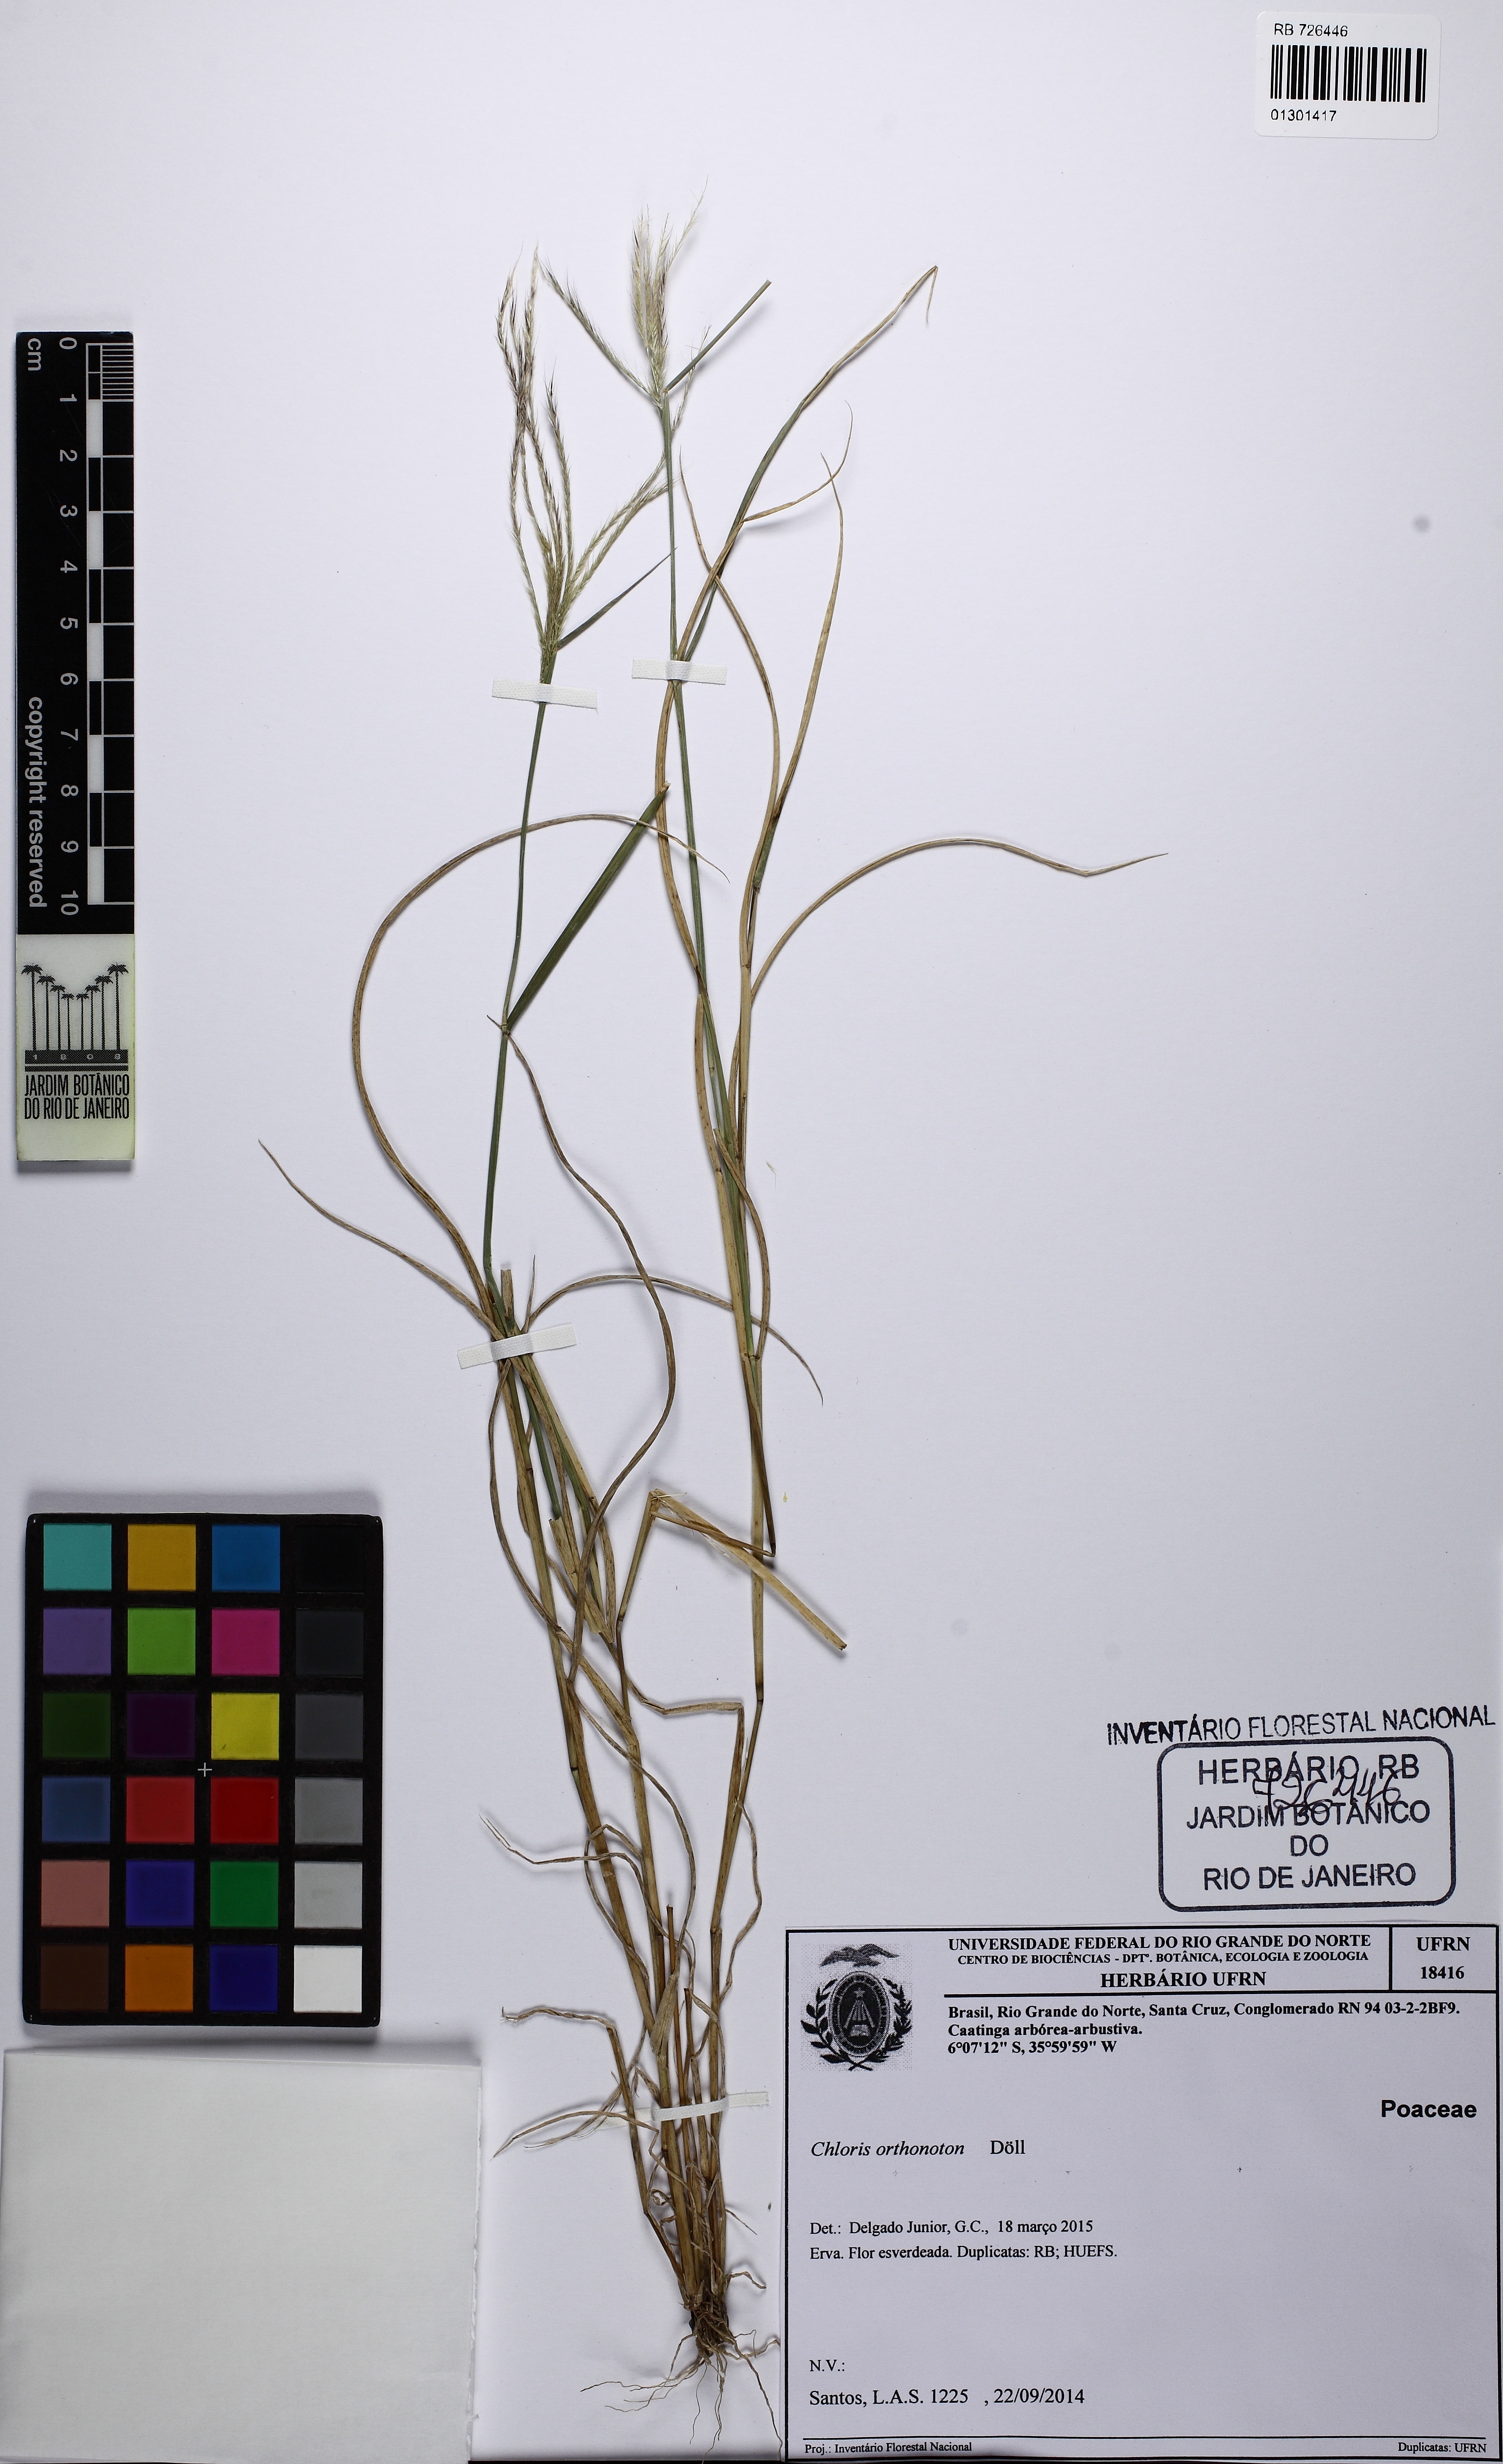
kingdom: Plantae
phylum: Tracheophyta
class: Liliopsida
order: Poales
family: Poaceae
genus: Chloris
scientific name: Chloris orthonoton
